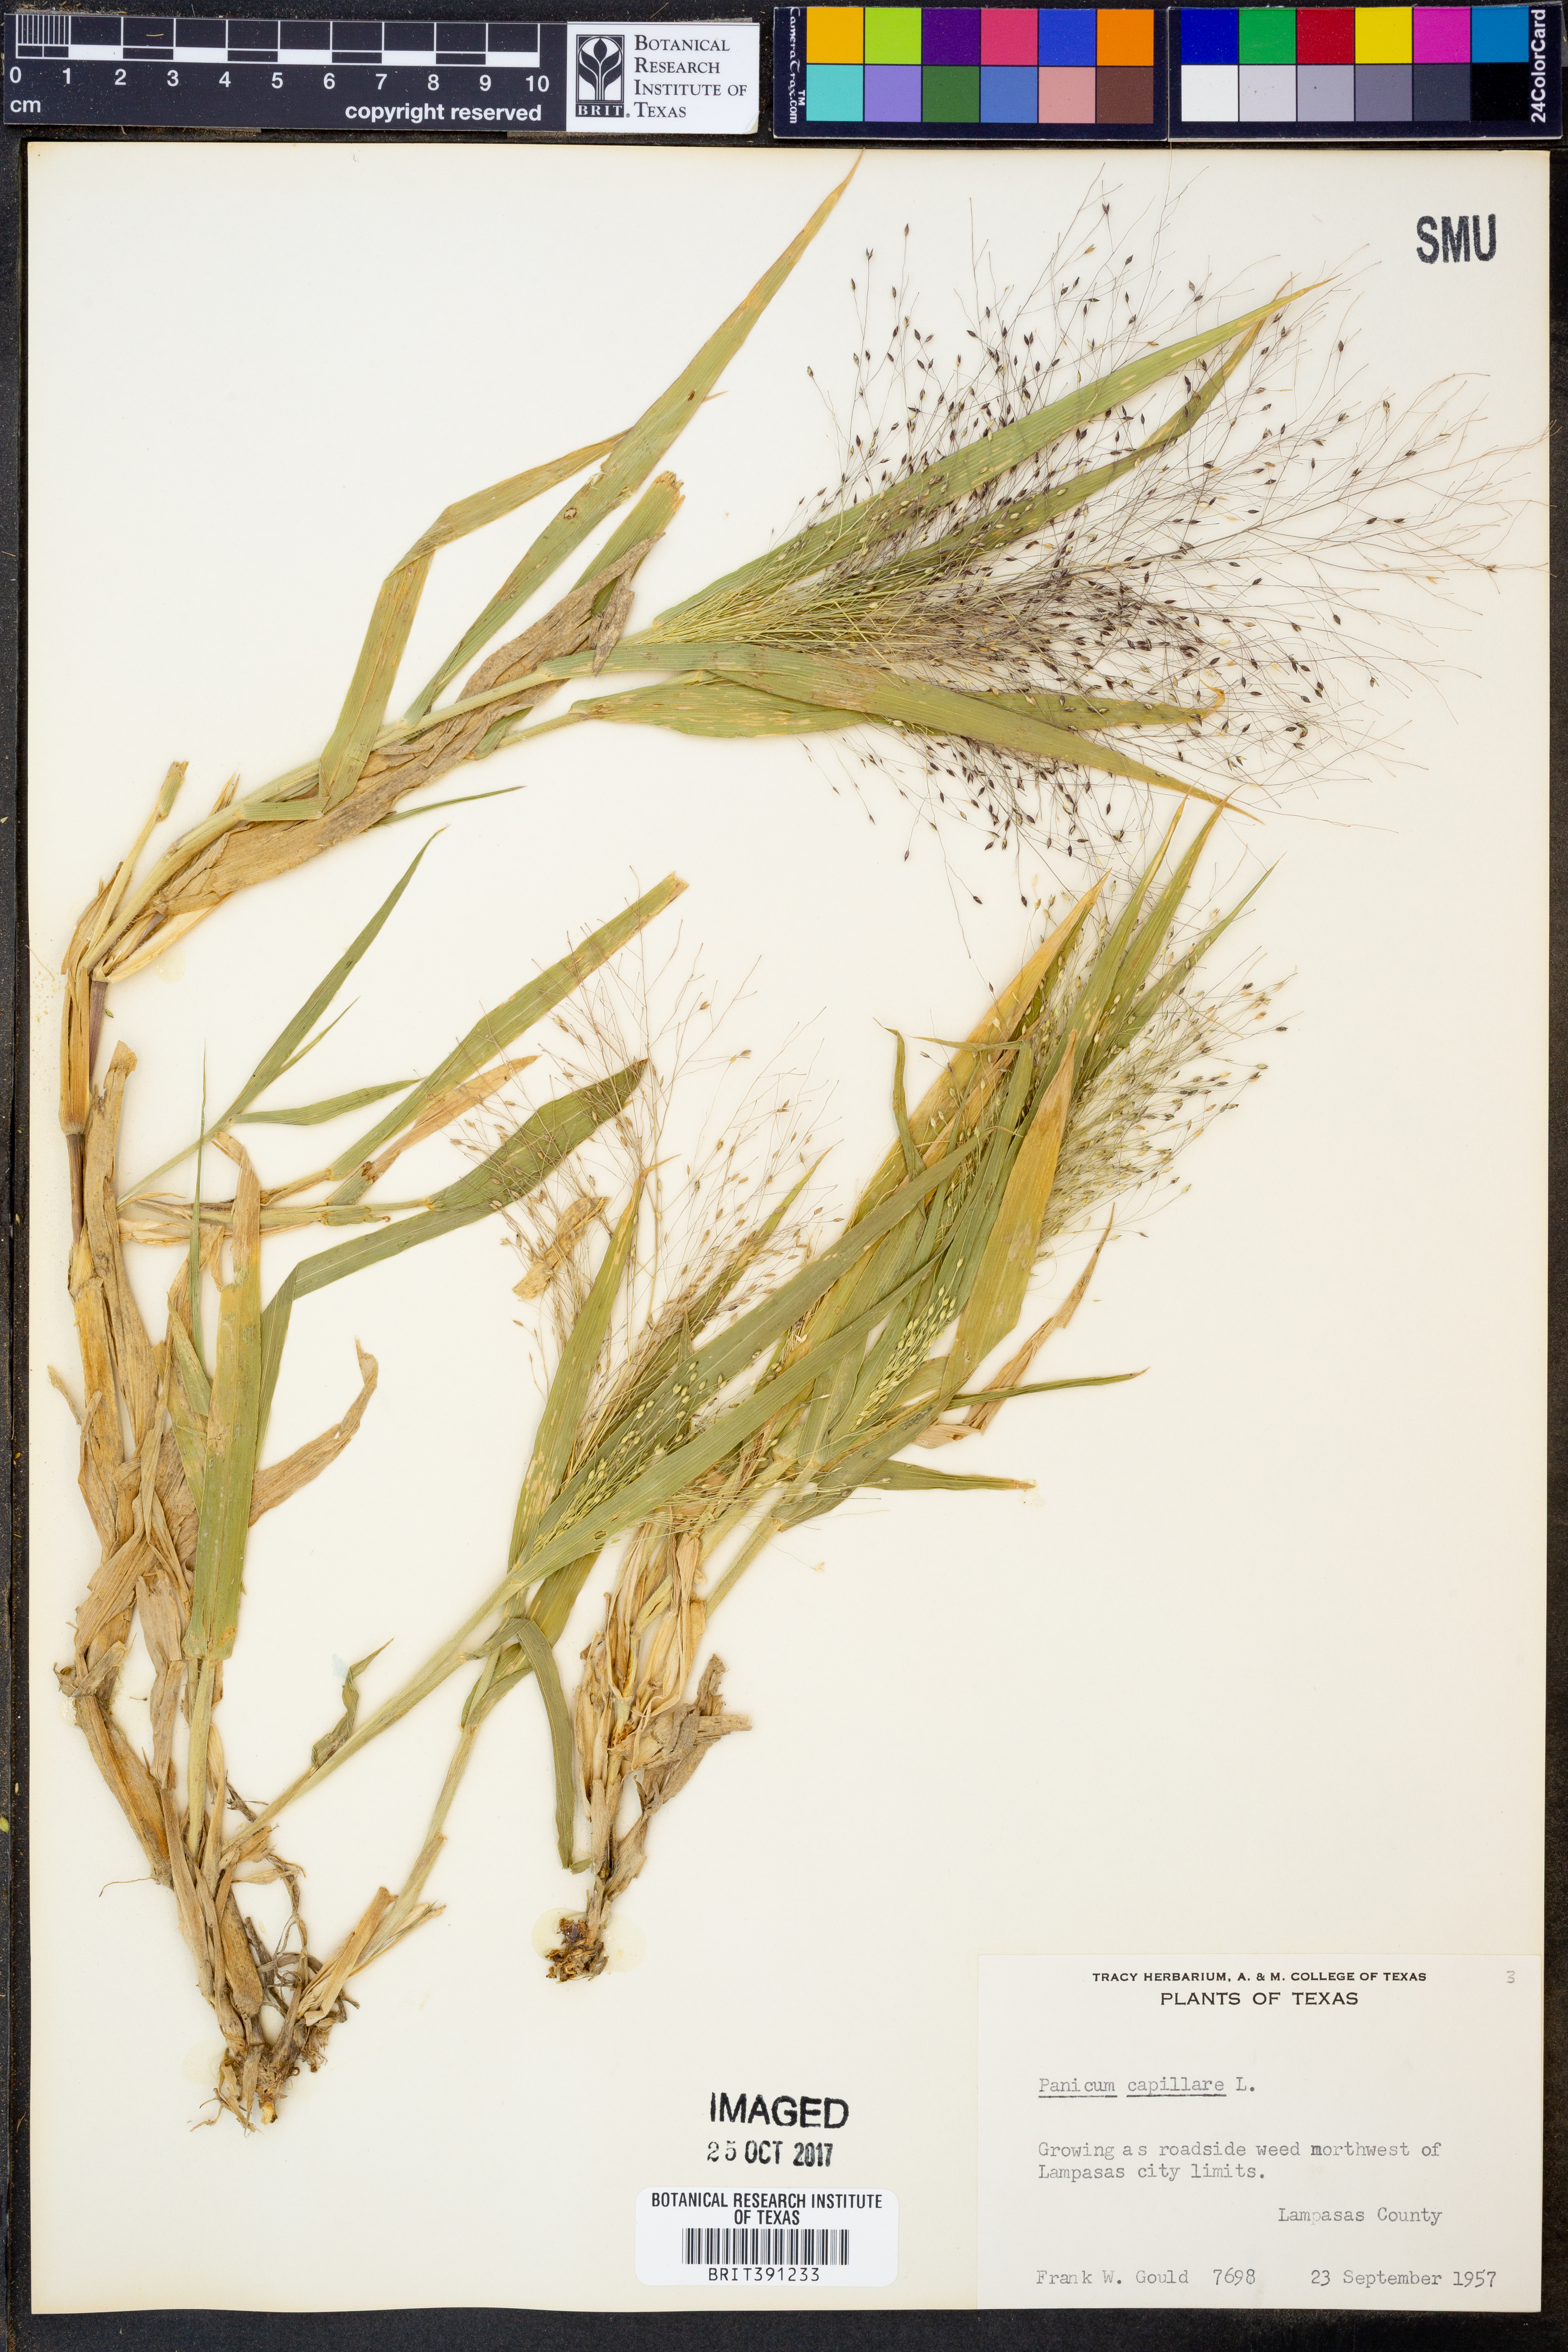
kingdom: Plantae
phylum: Tracheophyta
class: Liliopsida
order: Poales
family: Poaceae
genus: Panicum
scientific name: Panicum capillare
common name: Witch-grass
